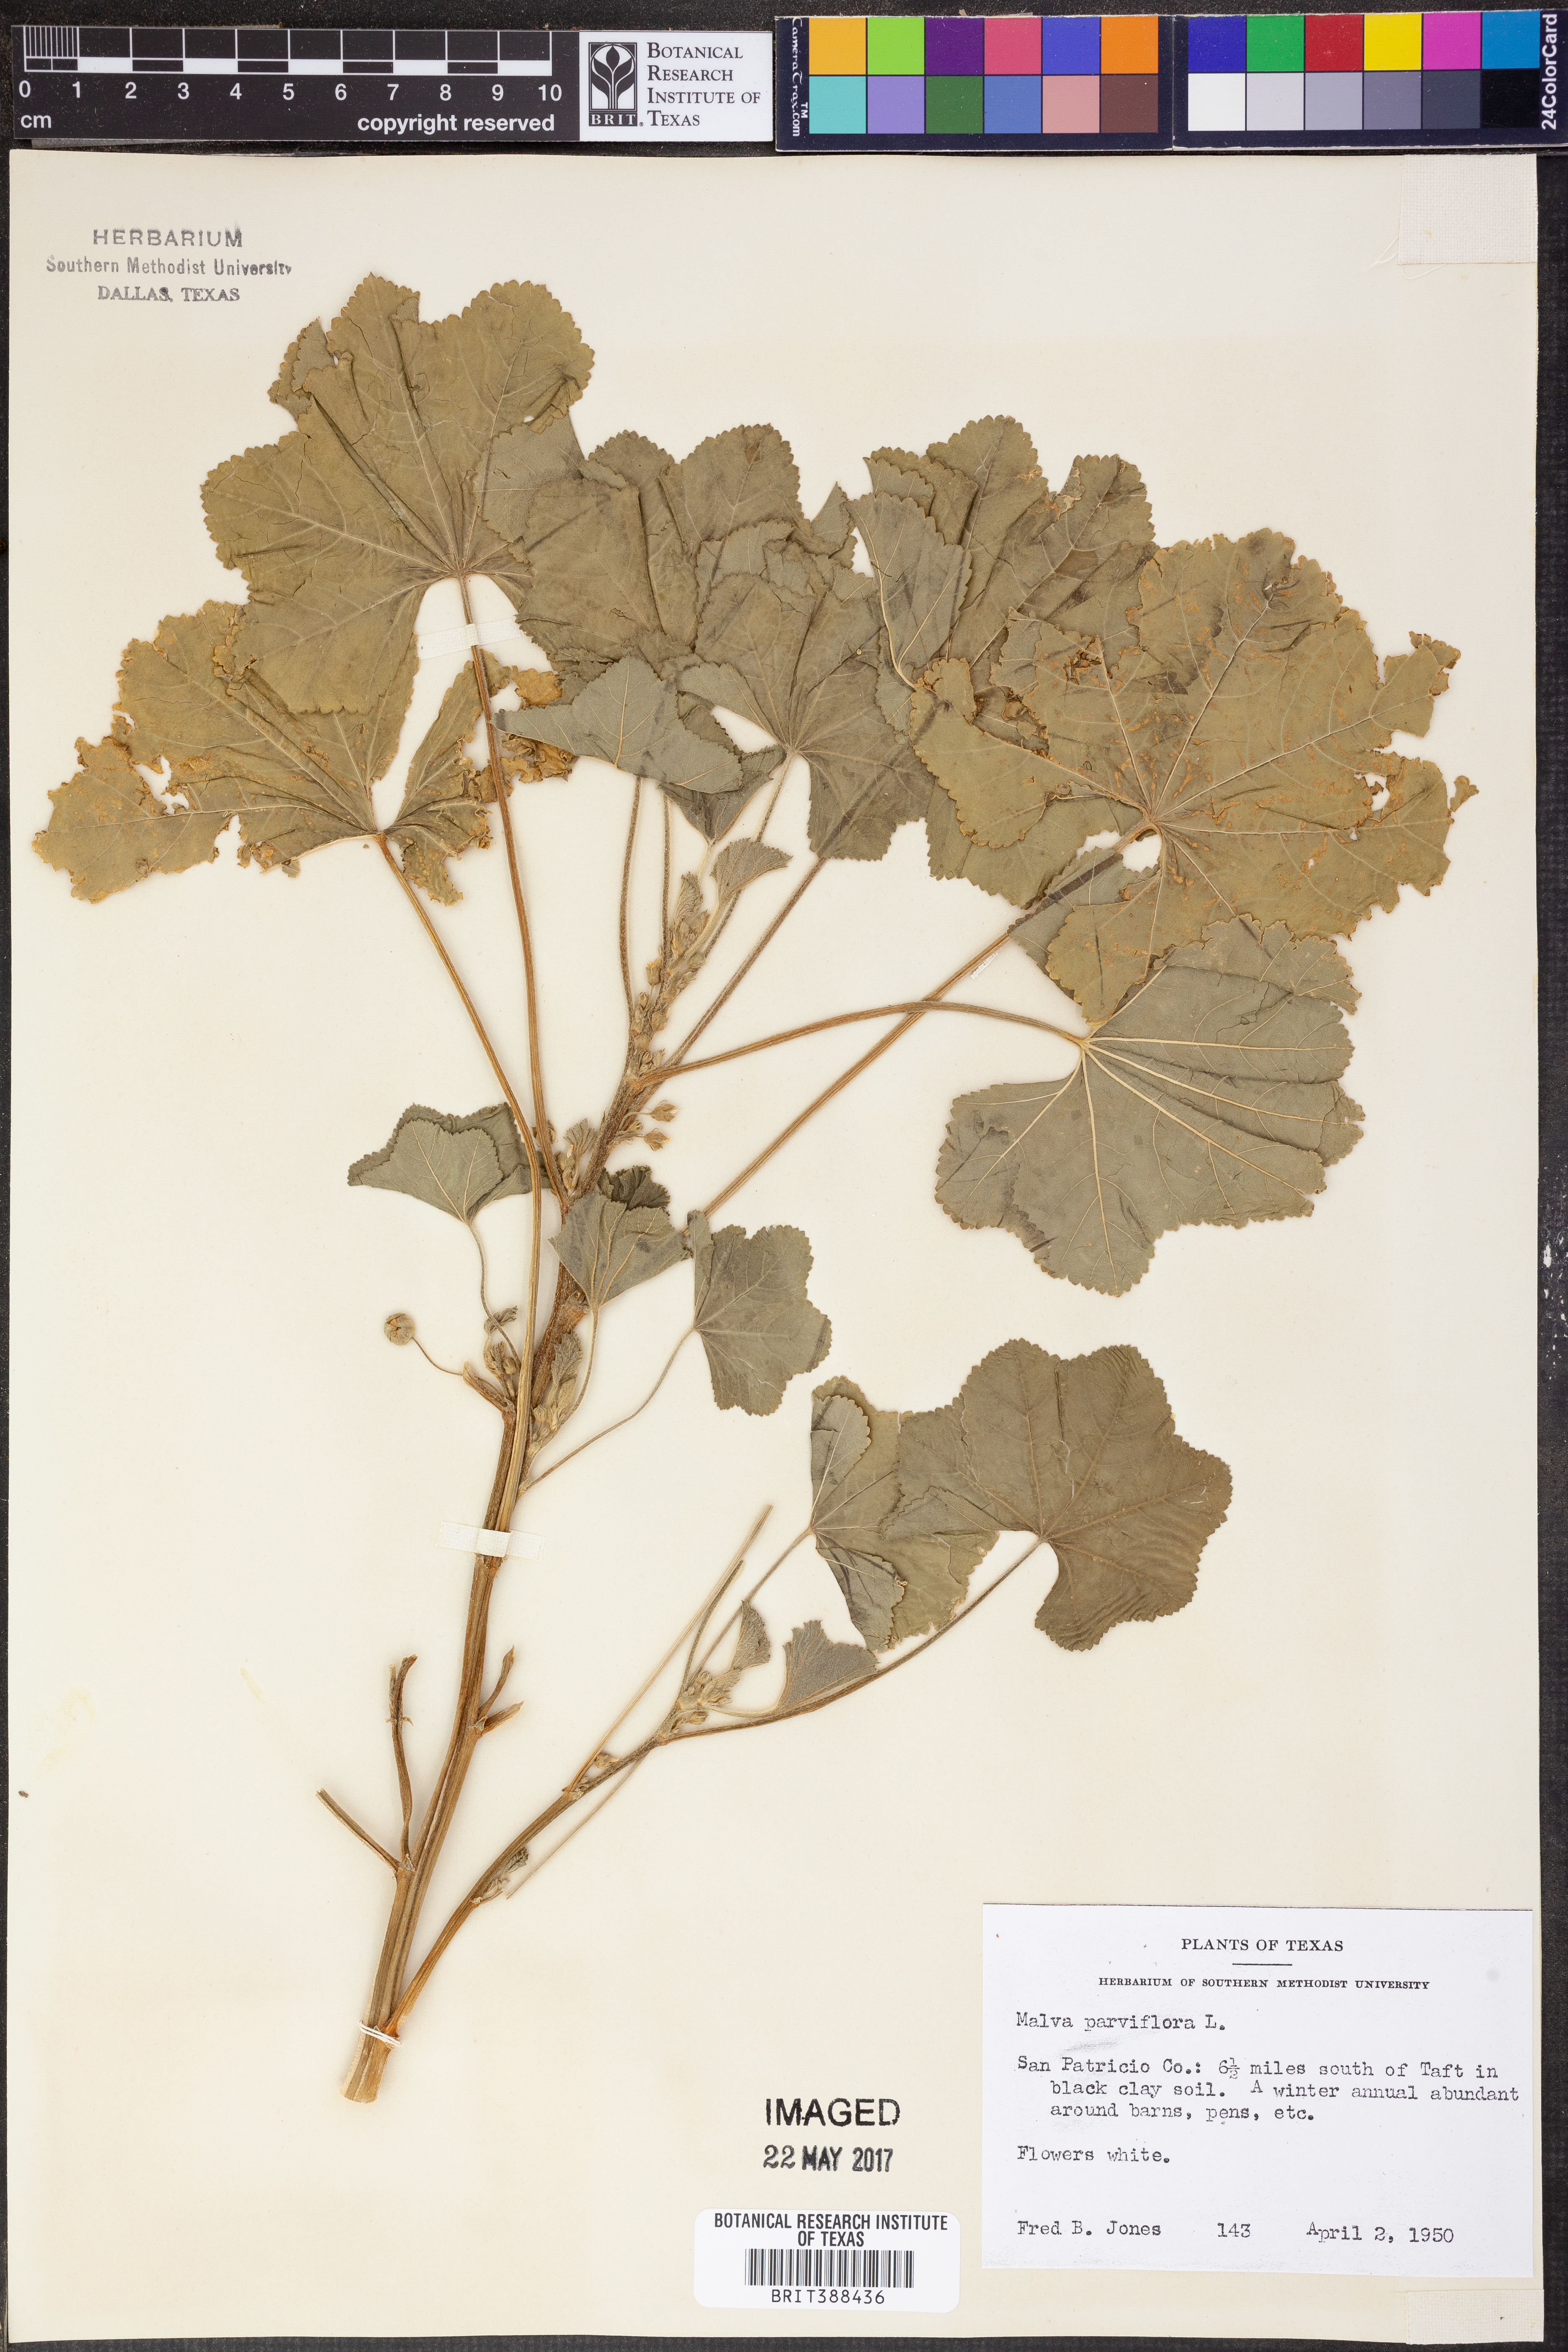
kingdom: Plantae
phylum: Tracheophyta
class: Magnoliopsida
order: Malvales
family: Malvaceae
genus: Malva
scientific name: Malva parviflora
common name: Least mallow
